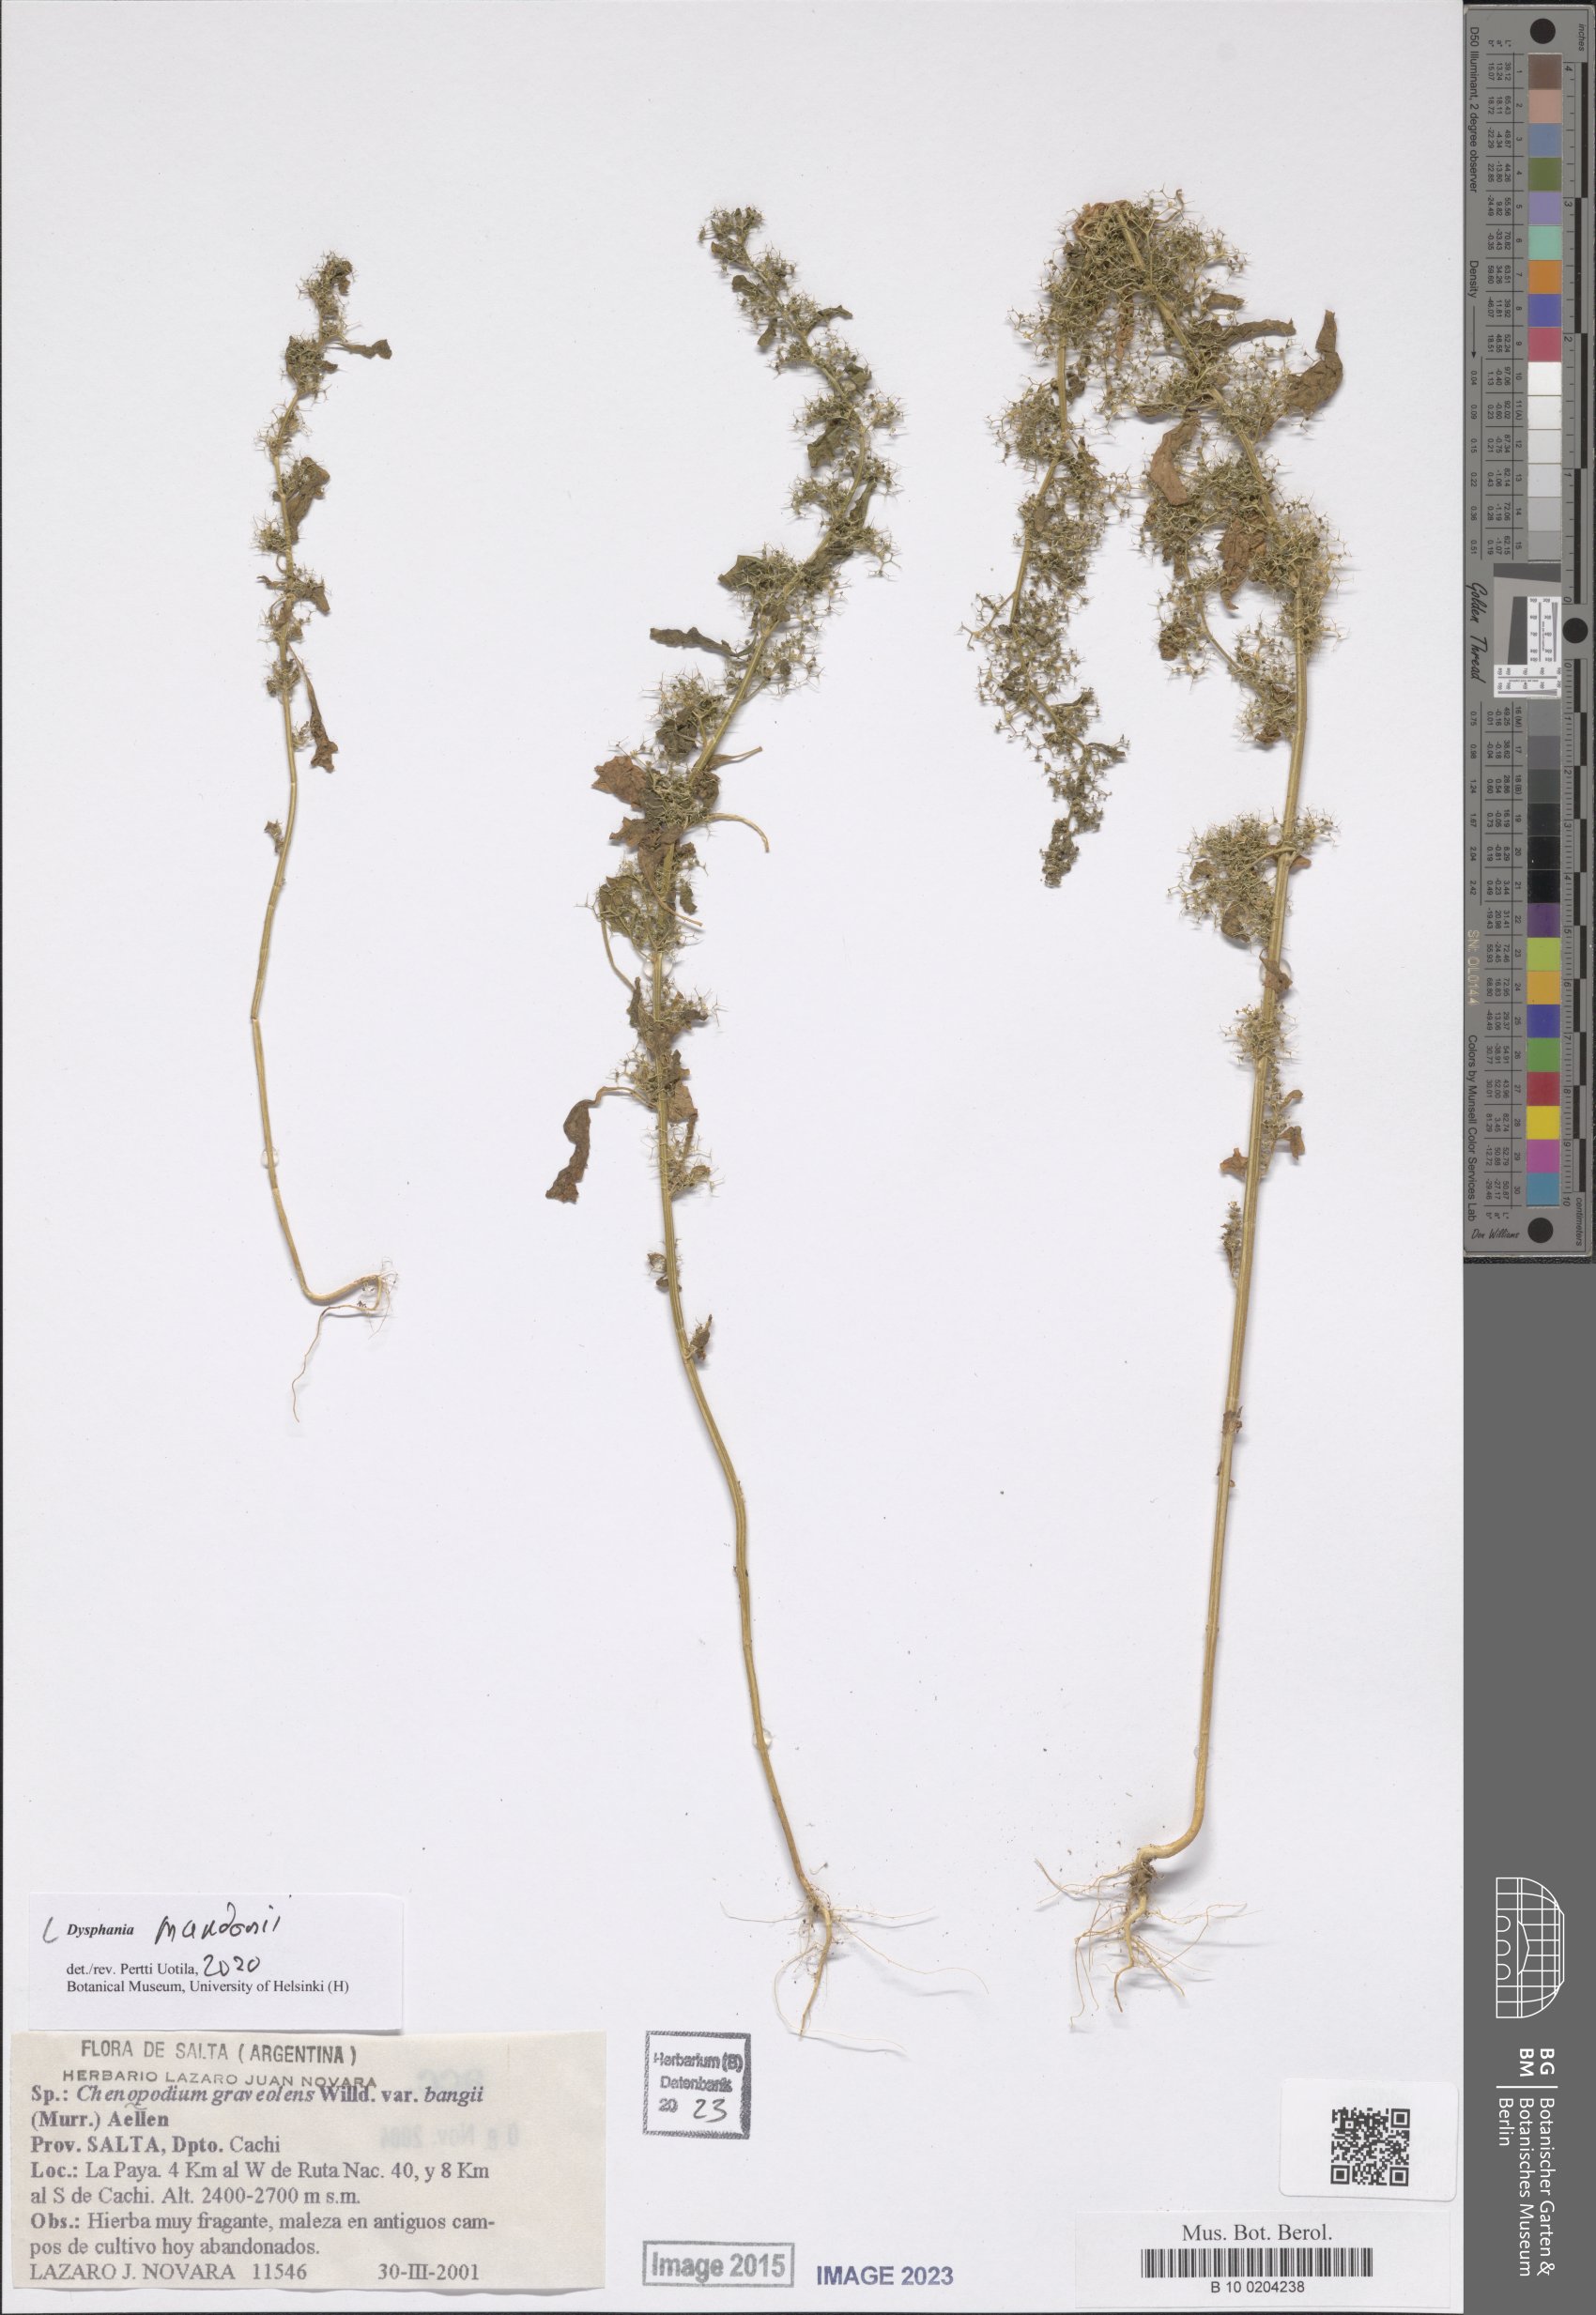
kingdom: Plantae
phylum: Tracheophyta
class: Magnoliopsida
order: Caryophyllales
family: Amaranthaceae
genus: Dysphania
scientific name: Dysphania mandonii
